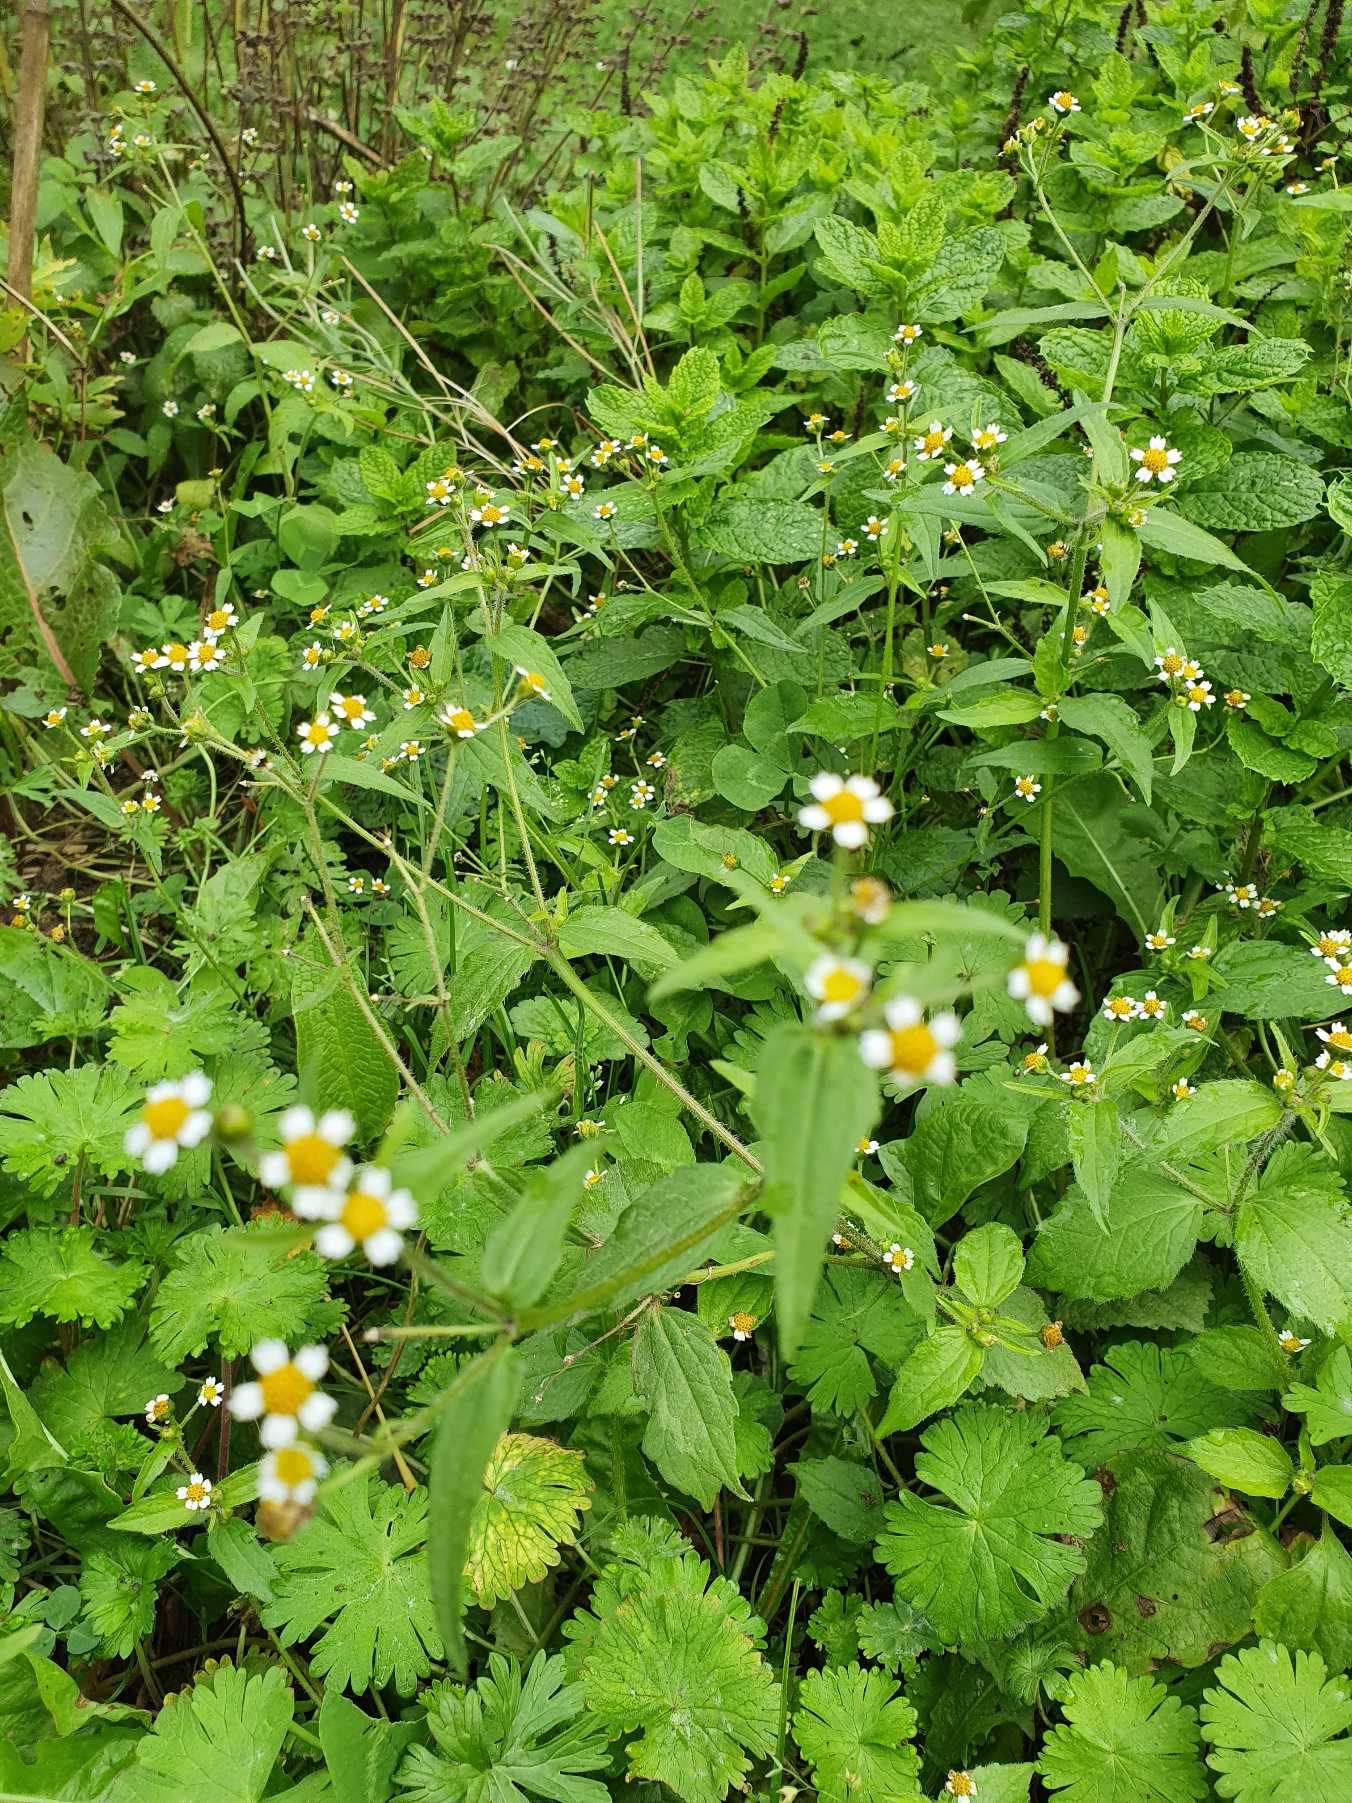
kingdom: Plantae
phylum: Tracheophyta
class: Magnoliopsida
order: Asterales
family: Asteraceae
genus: Galinsoga
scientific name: Galinsoga quadriradiata
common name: Kirtel-kortstråle
